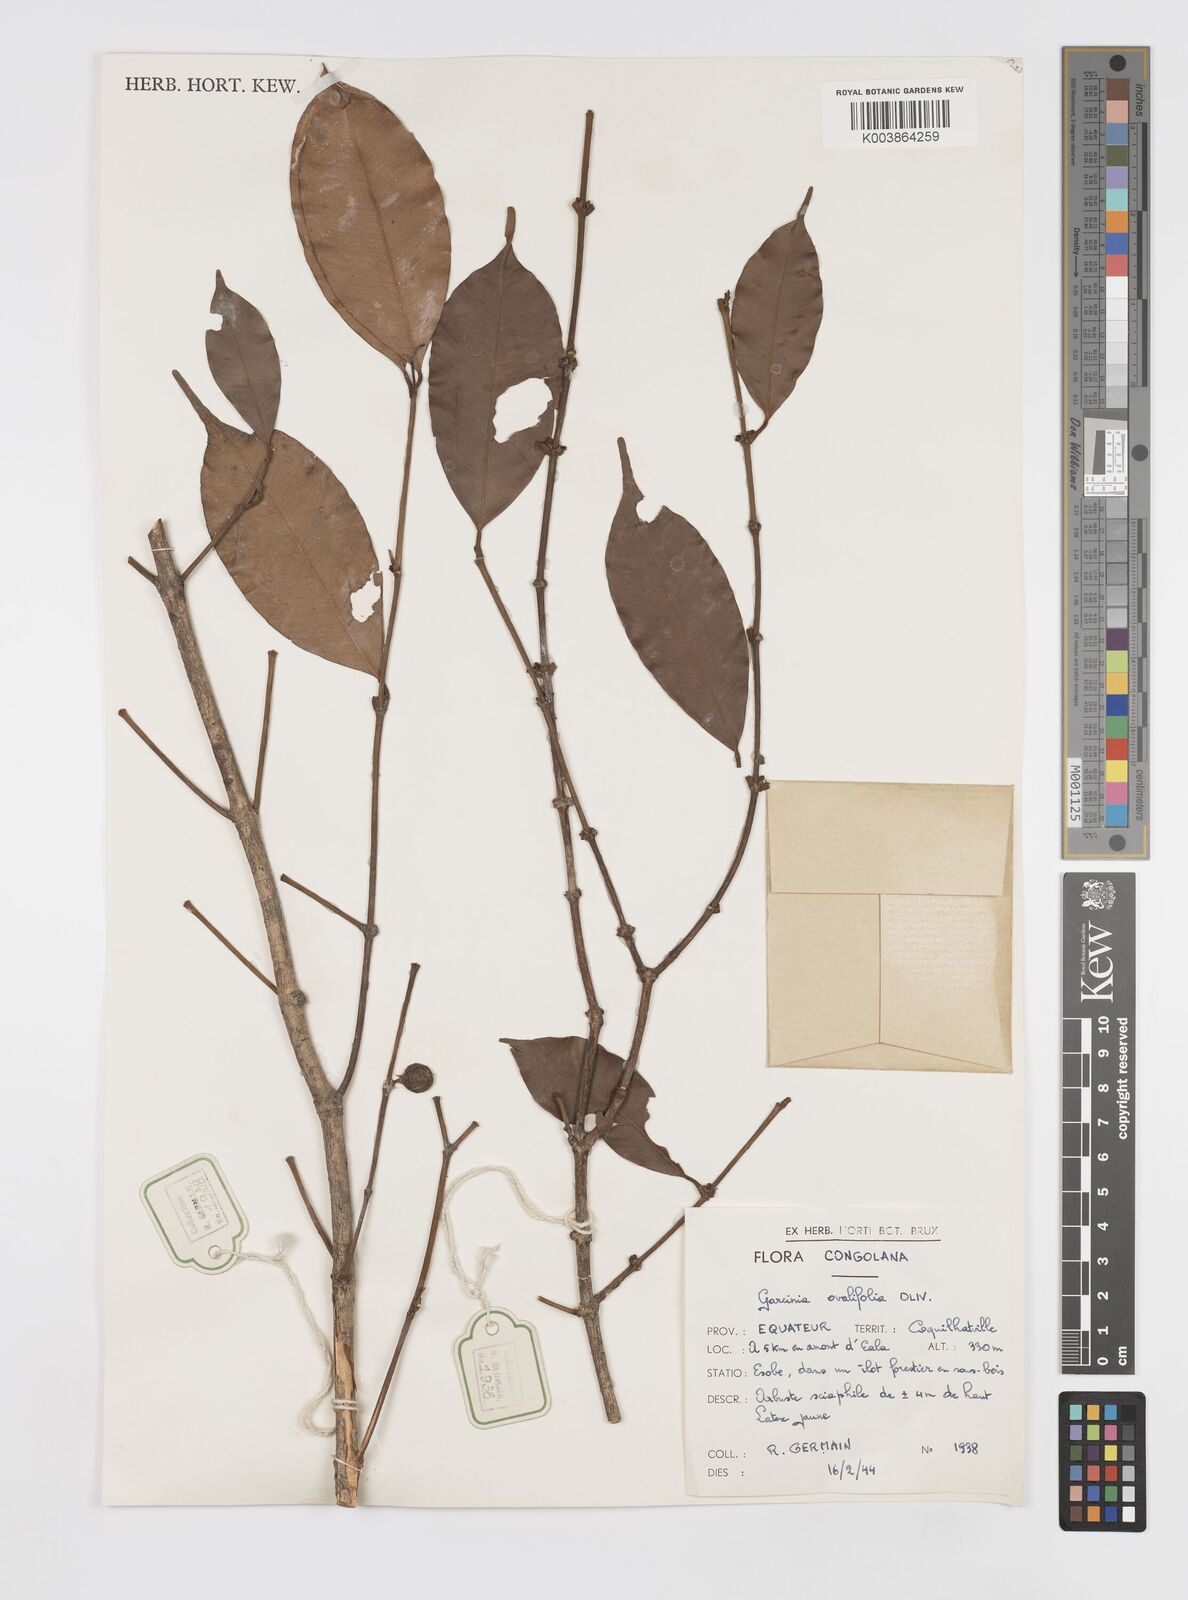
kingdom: Plantae
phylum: Tracheophyta
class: Magnoliopsida
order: Malpighiales
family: Clusiaceae
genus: Garcinia
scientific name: Garcinia ovalifolia
